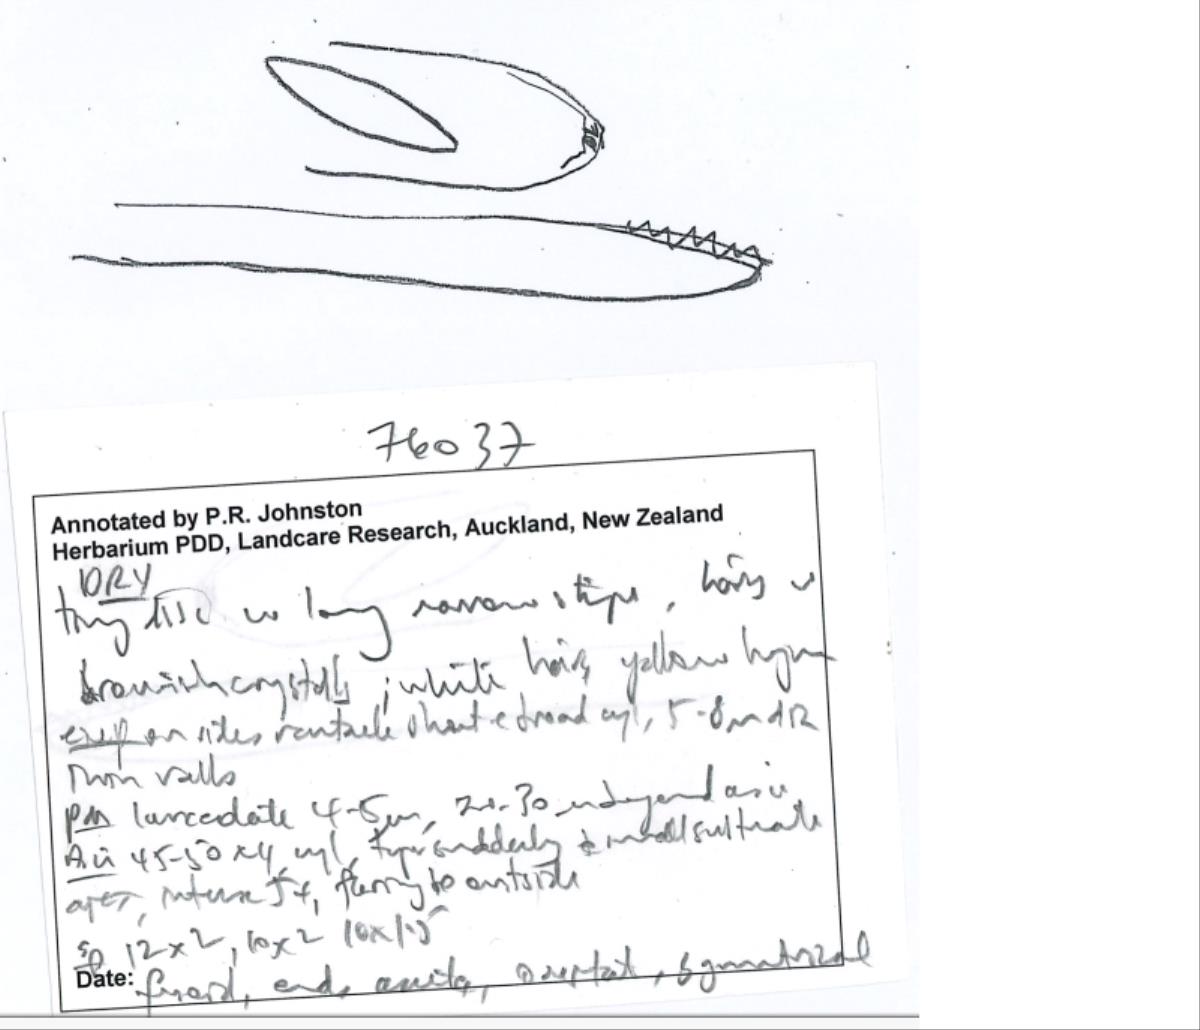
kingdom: Fungi
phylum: Ascomycota
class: Leotiomycetes
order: Helotiales
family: Lachnaceae
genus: Lachnopsis
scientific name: Lachnopsis
